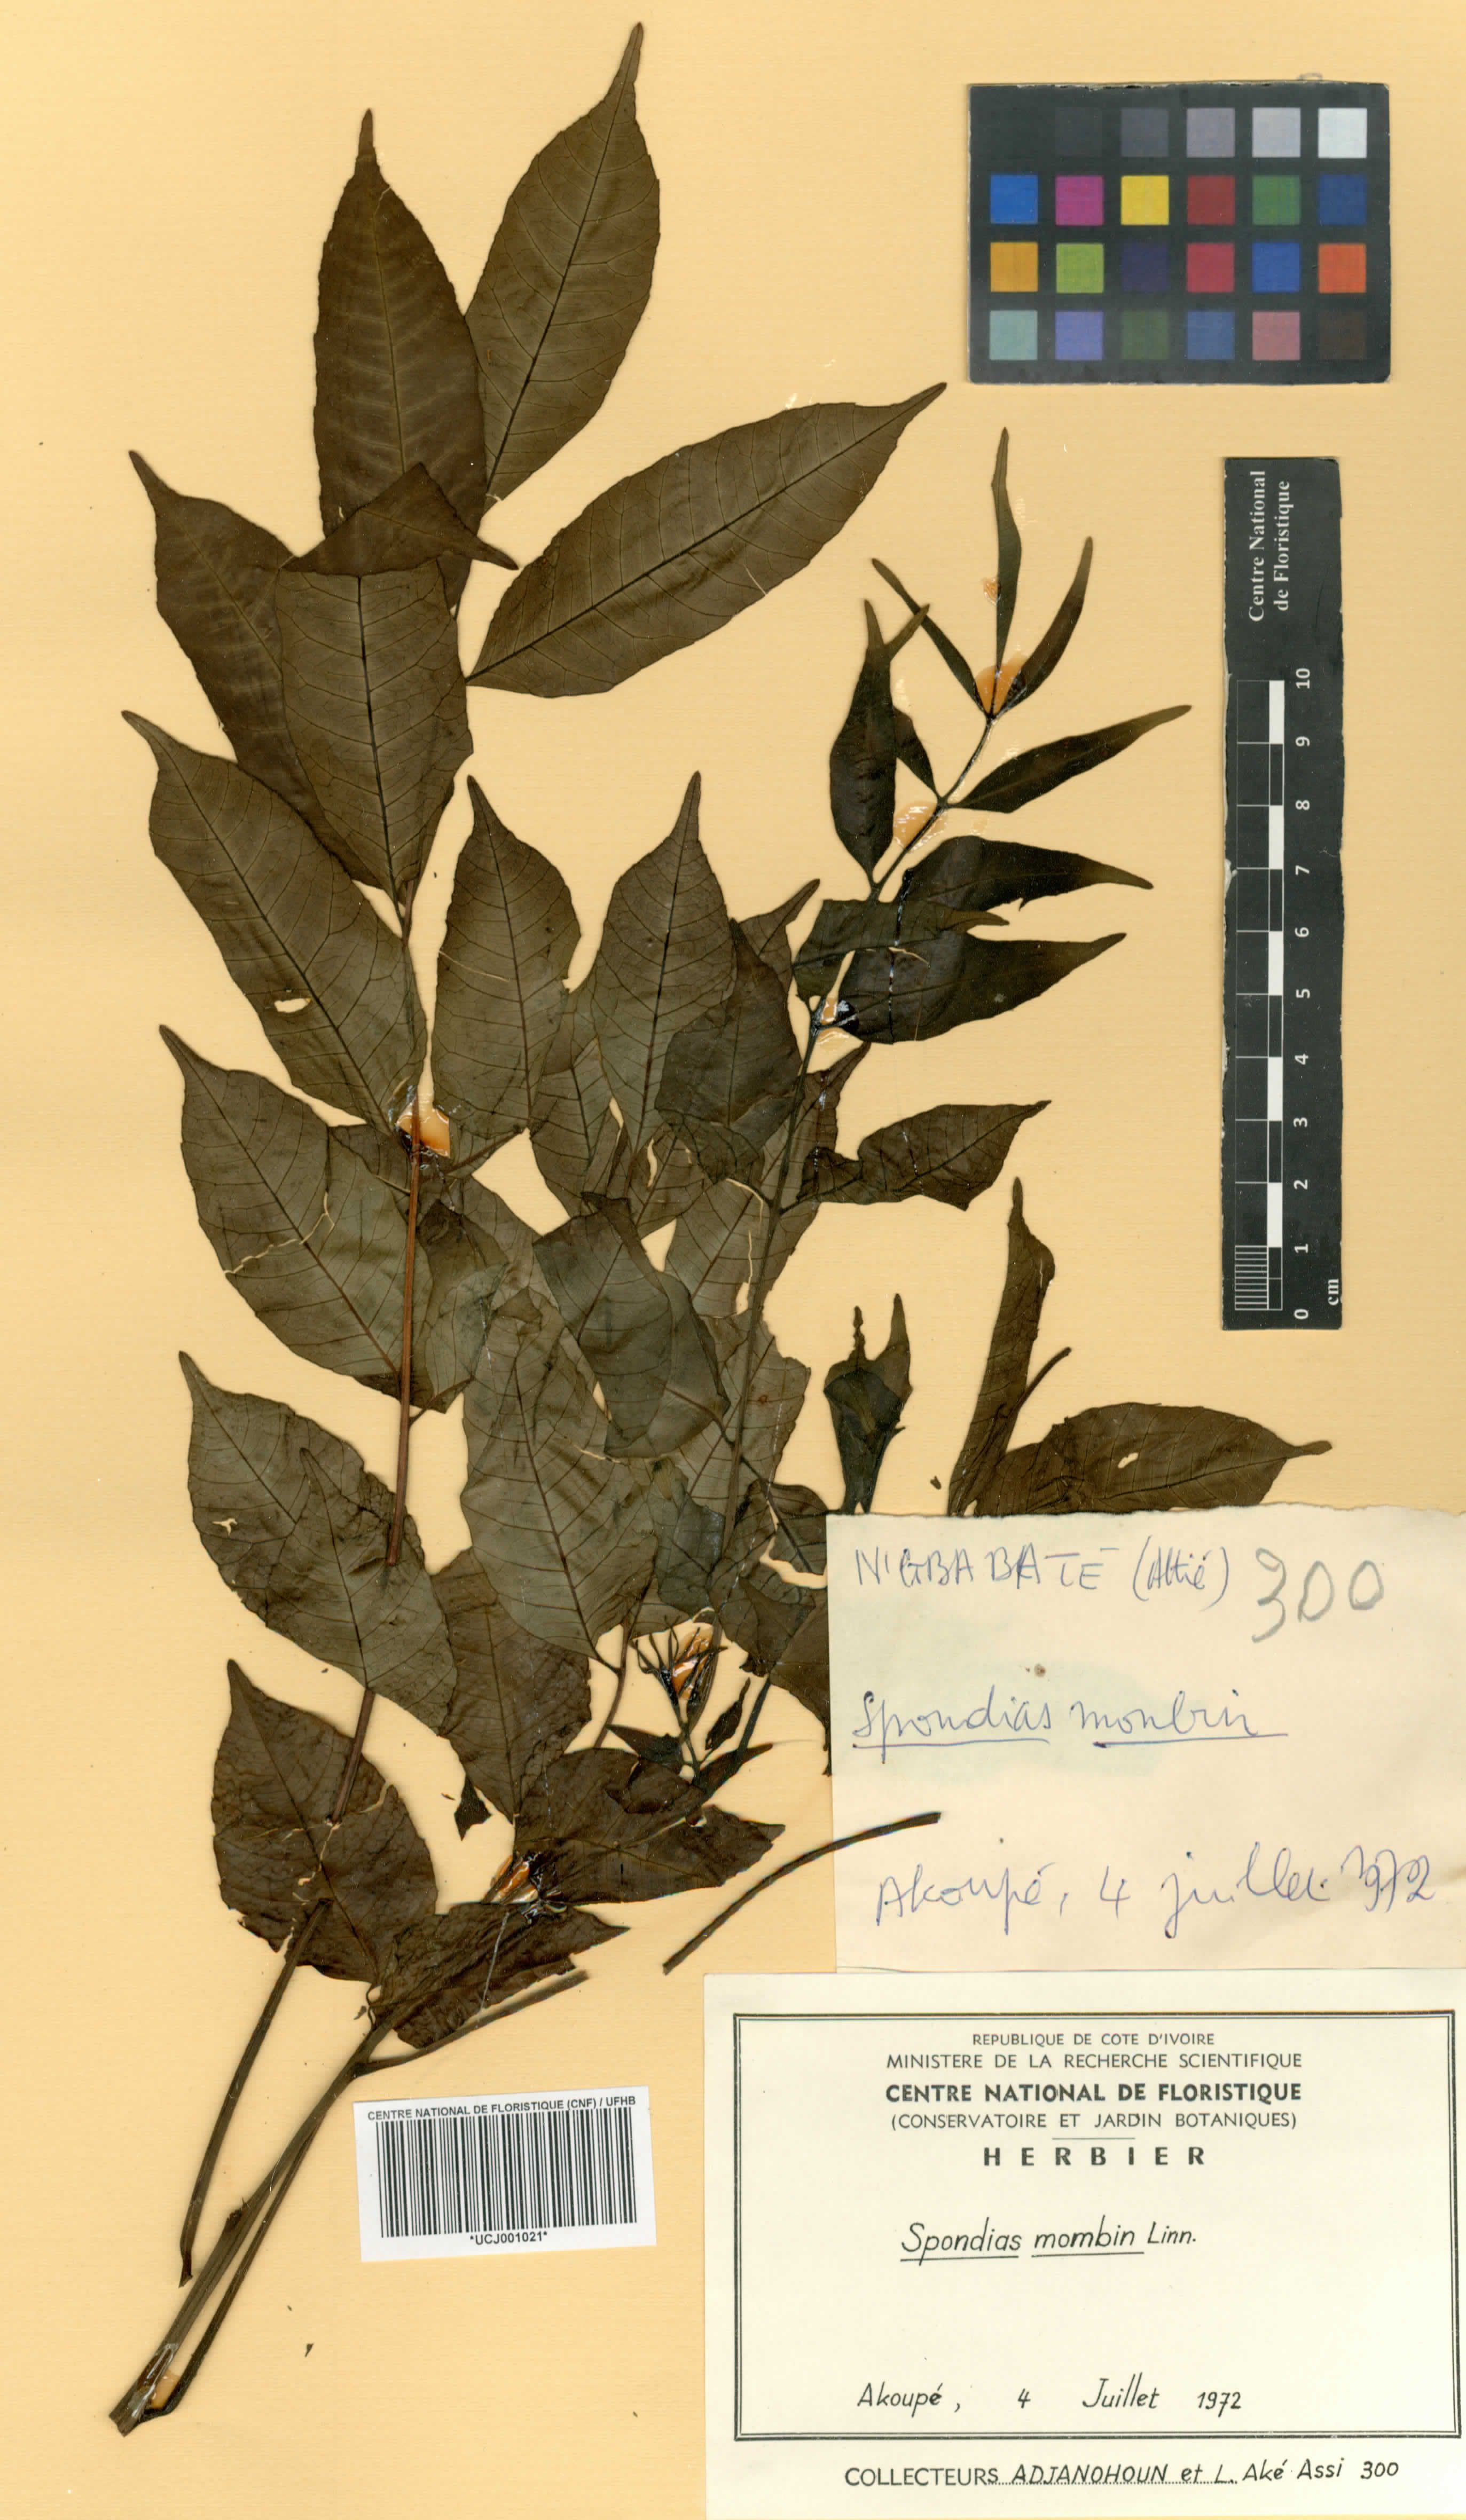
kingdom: Plantae
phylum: Tracheophyta
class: Magnoliopsida
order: Sapindales
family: Anacardiaceae
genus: Spondias
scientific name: Spondias mombin
